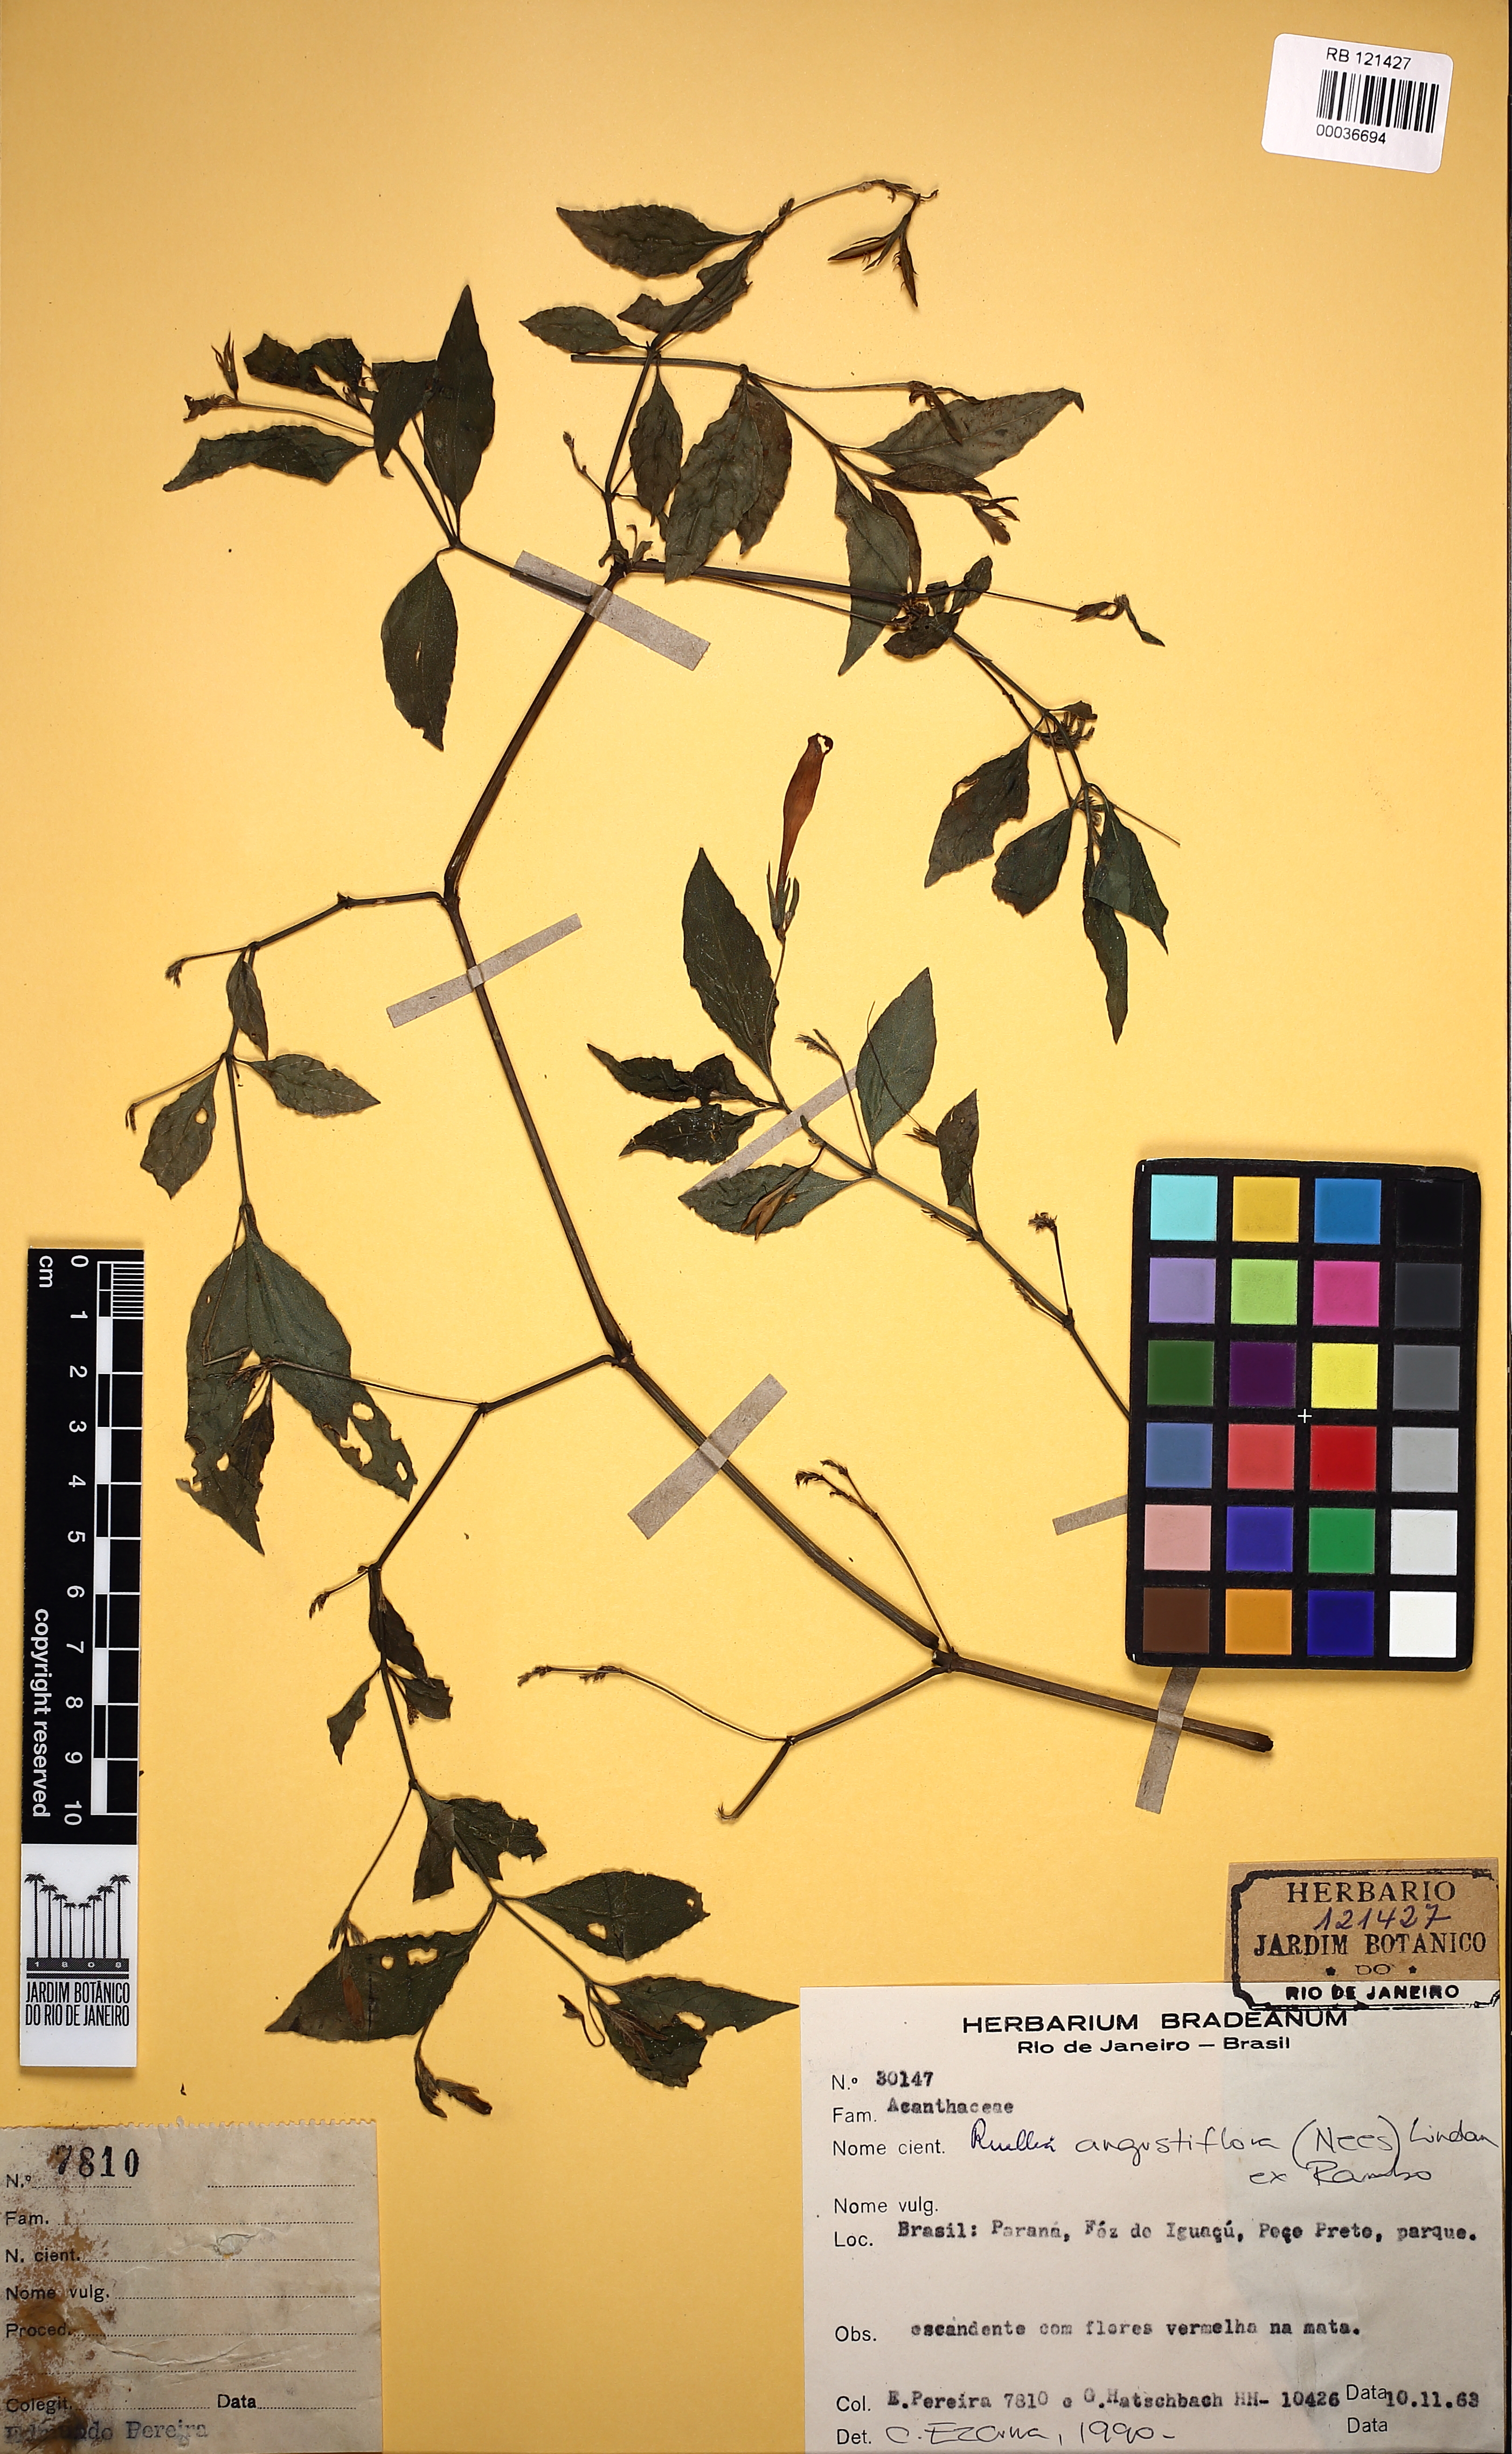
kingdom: Plantae
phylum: Tracheophyta
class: Magnoliopsida
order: Lamiales
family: Acanthaceae
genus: Ruellia
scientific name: Ruellia angustiflora
